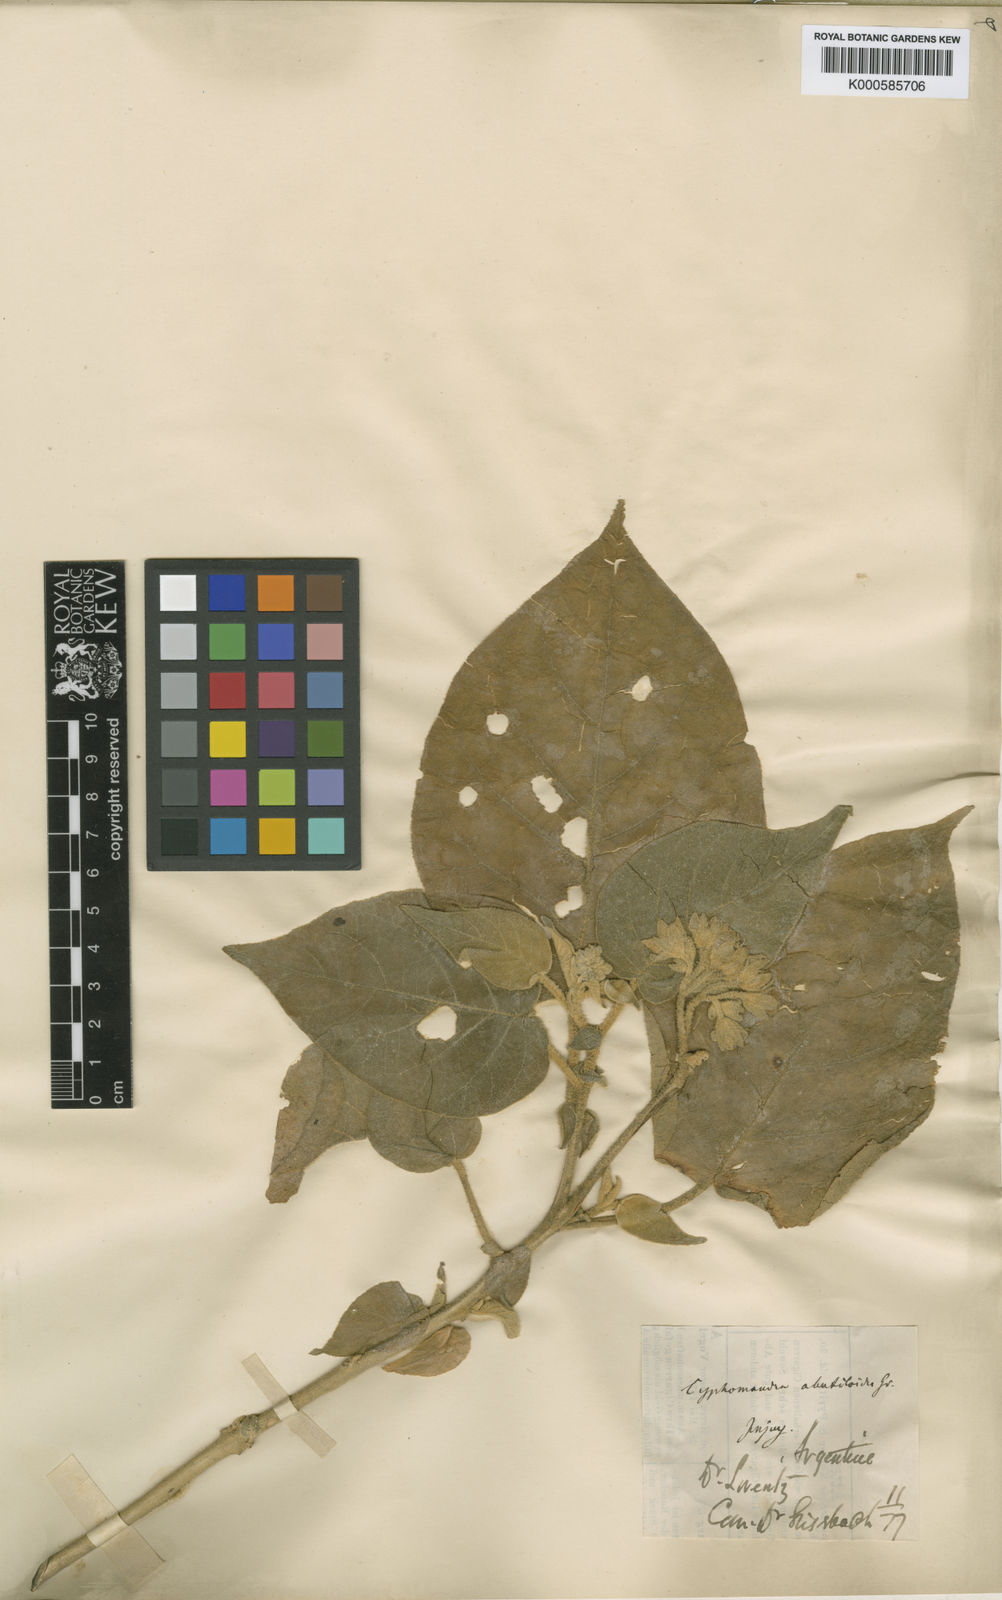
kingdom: Plantae
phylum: Tracheophyta
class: Magnoliopsida
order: Solanales
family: Solanaceae
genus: Solanum
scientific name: Solanum abutiloides
